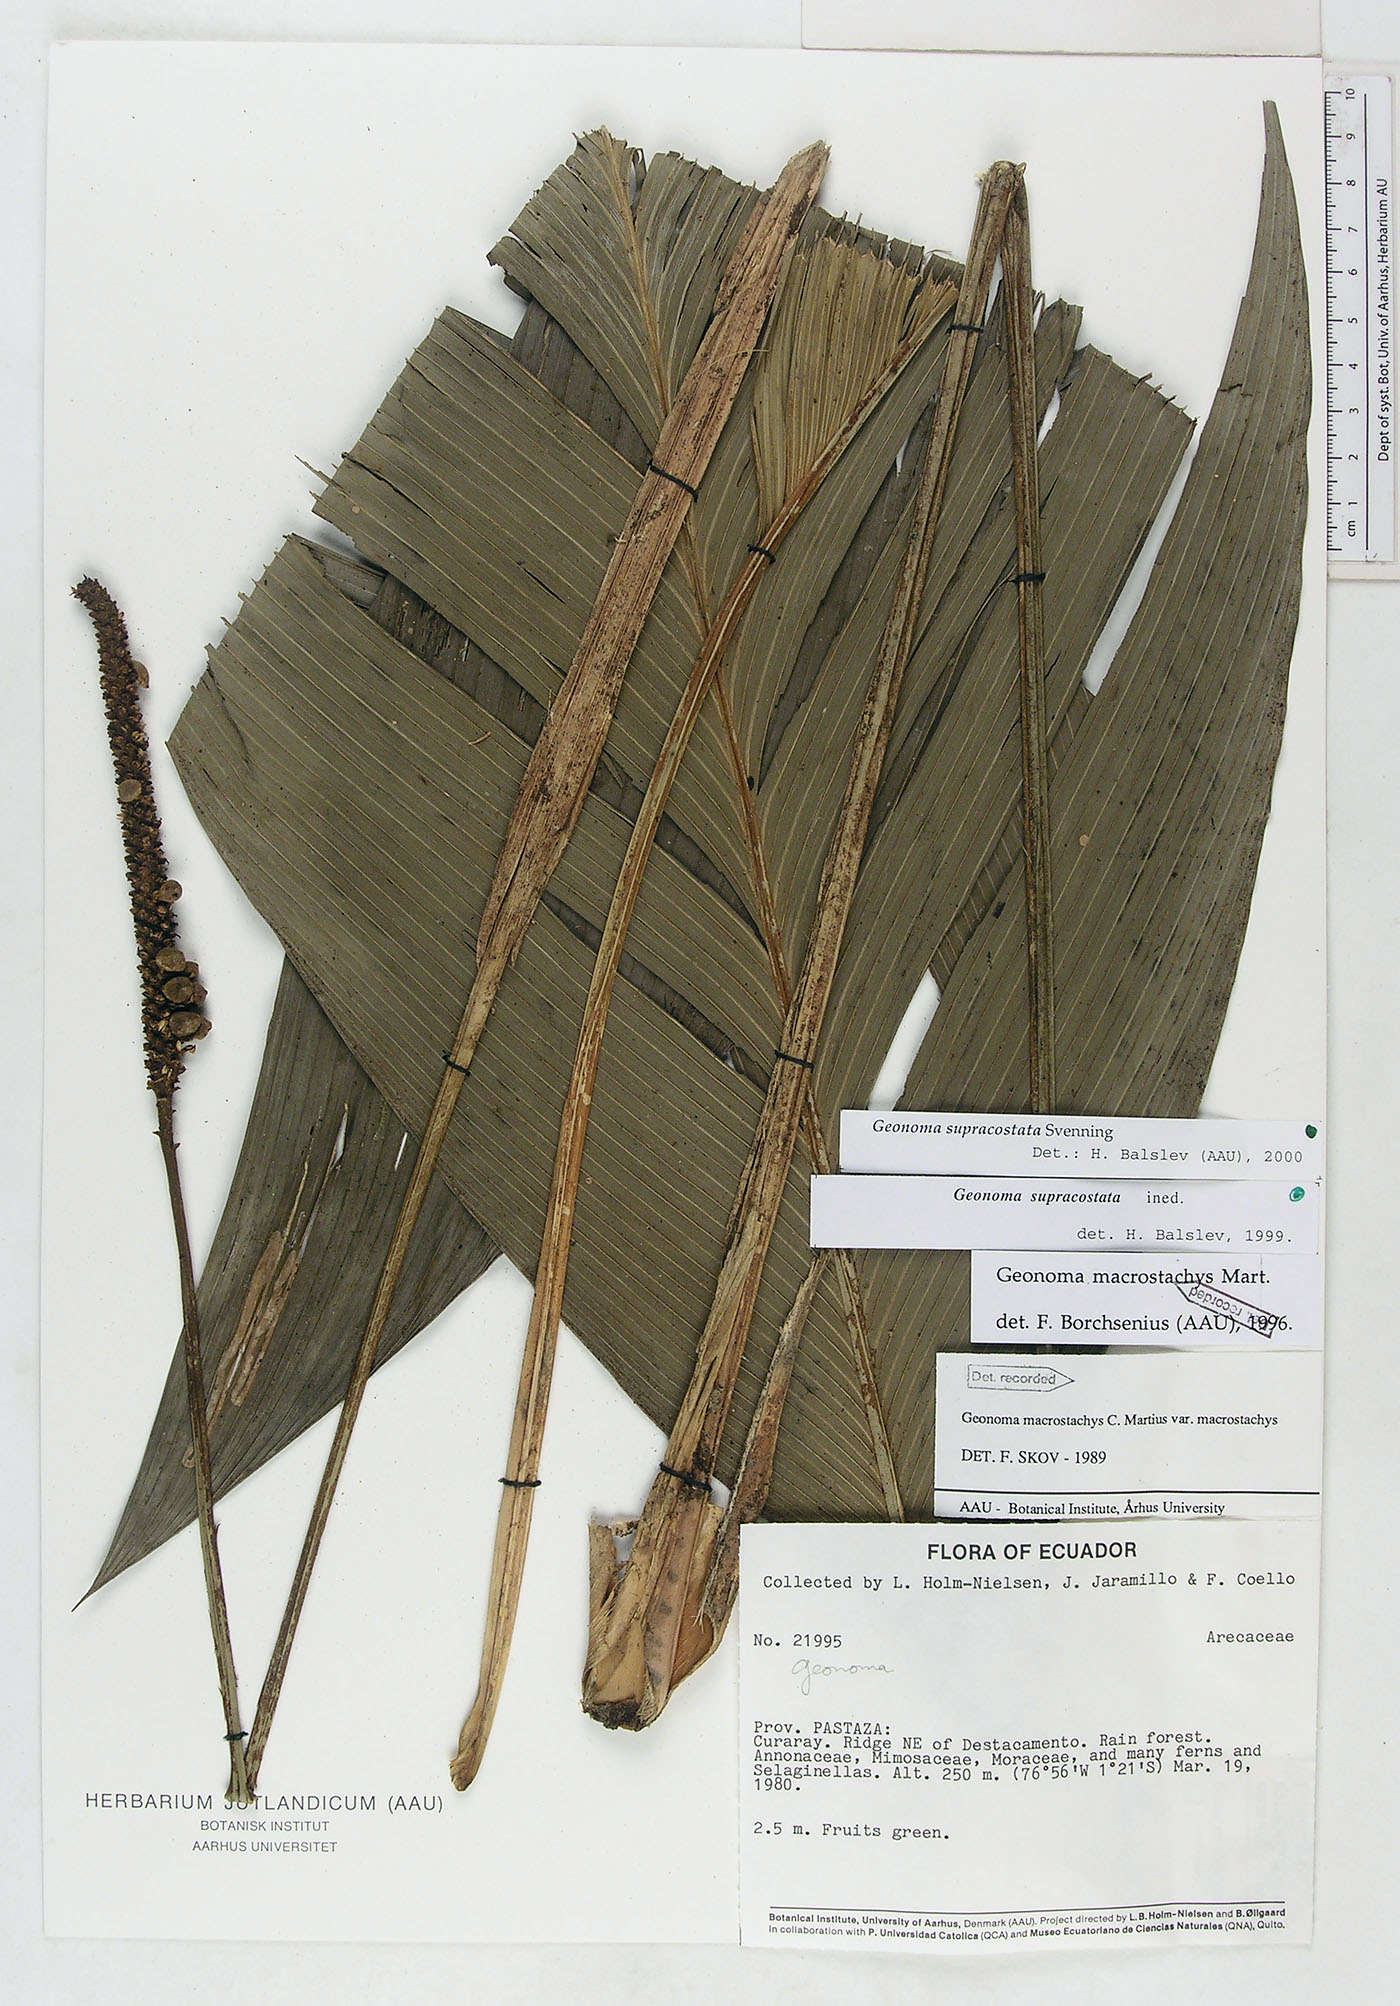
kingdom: Plantae
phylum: Tracheophyta
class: Liliopsida
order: Arecales
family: Arecaceae
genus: Geonoma
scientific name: Geonoma macrostachys
